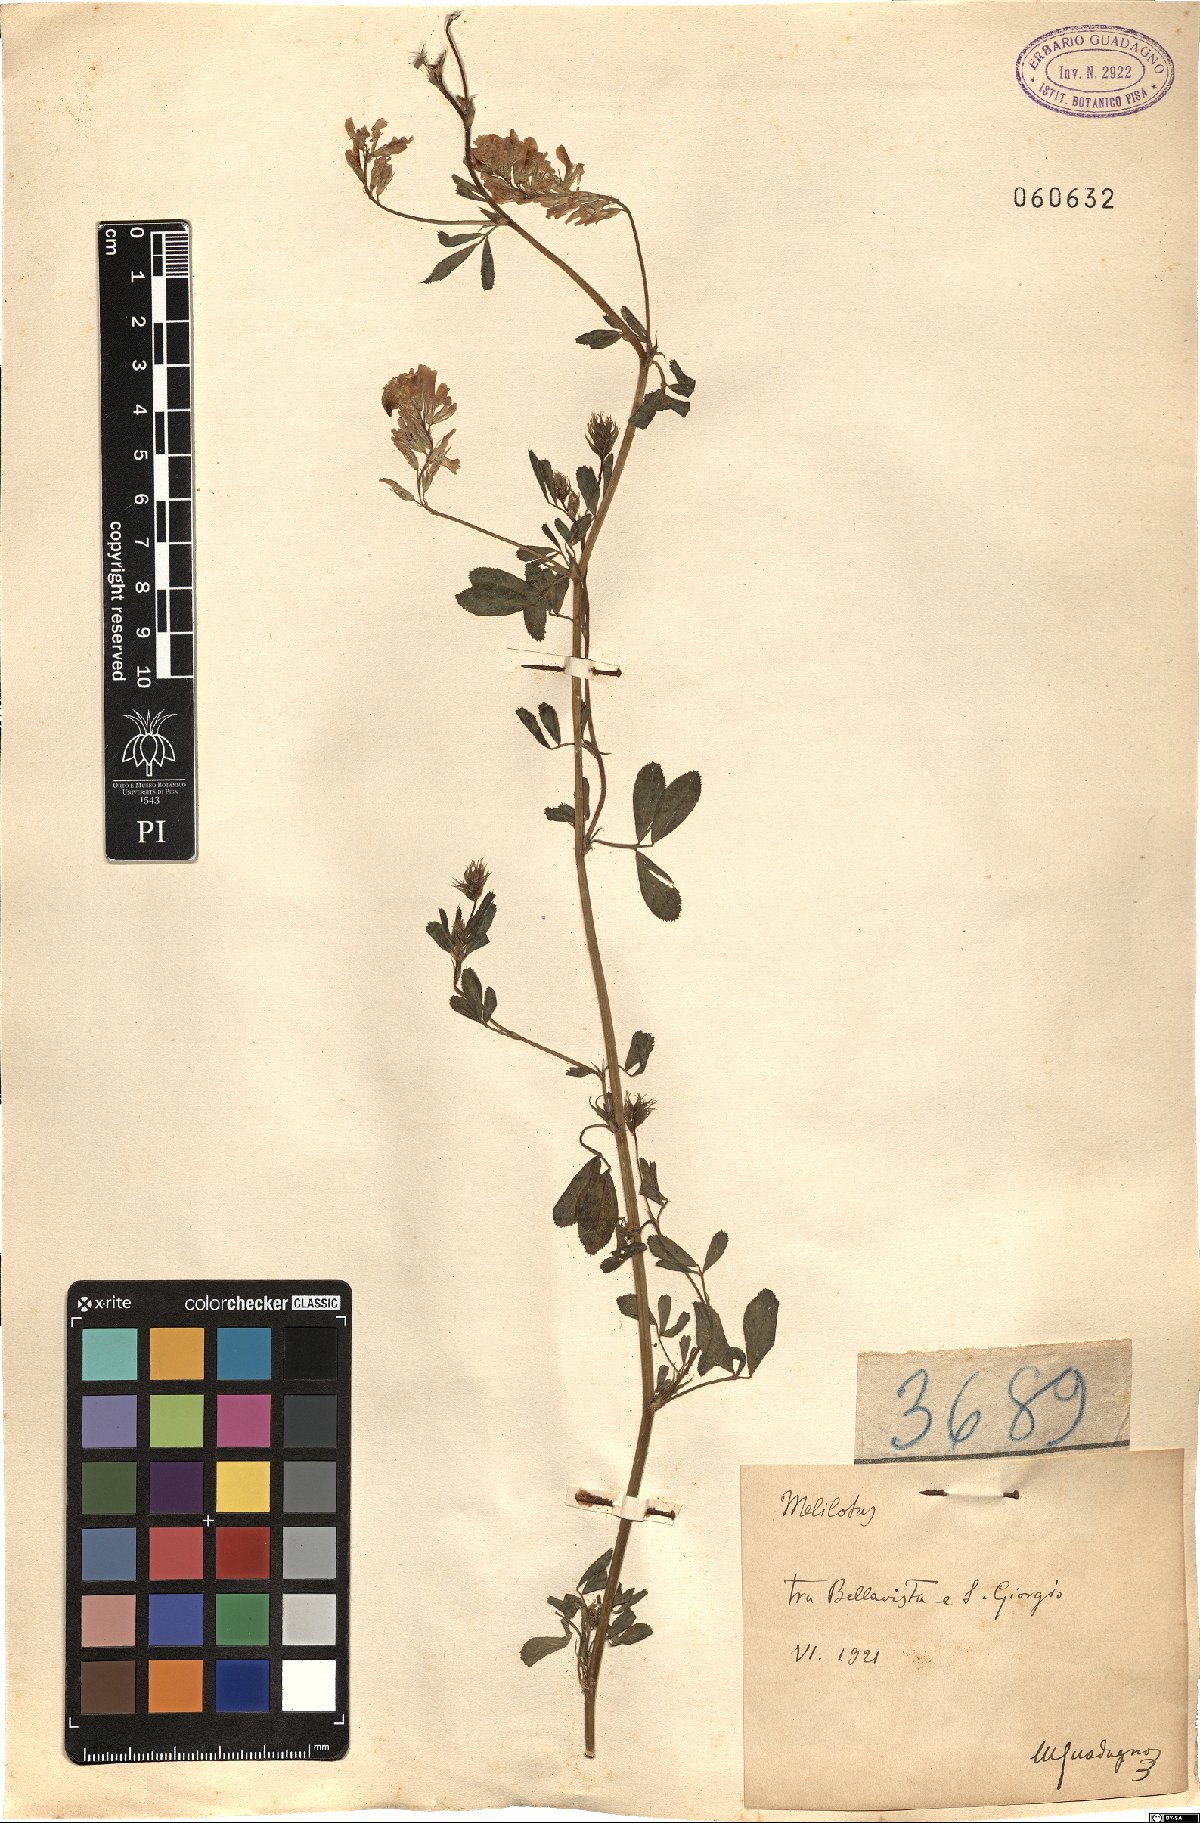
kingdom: Plantae
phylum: Tracheophyta
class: Magnoliopsida
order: Fabales
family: Fabaceae
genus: Melilotus
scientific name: Melilotus
